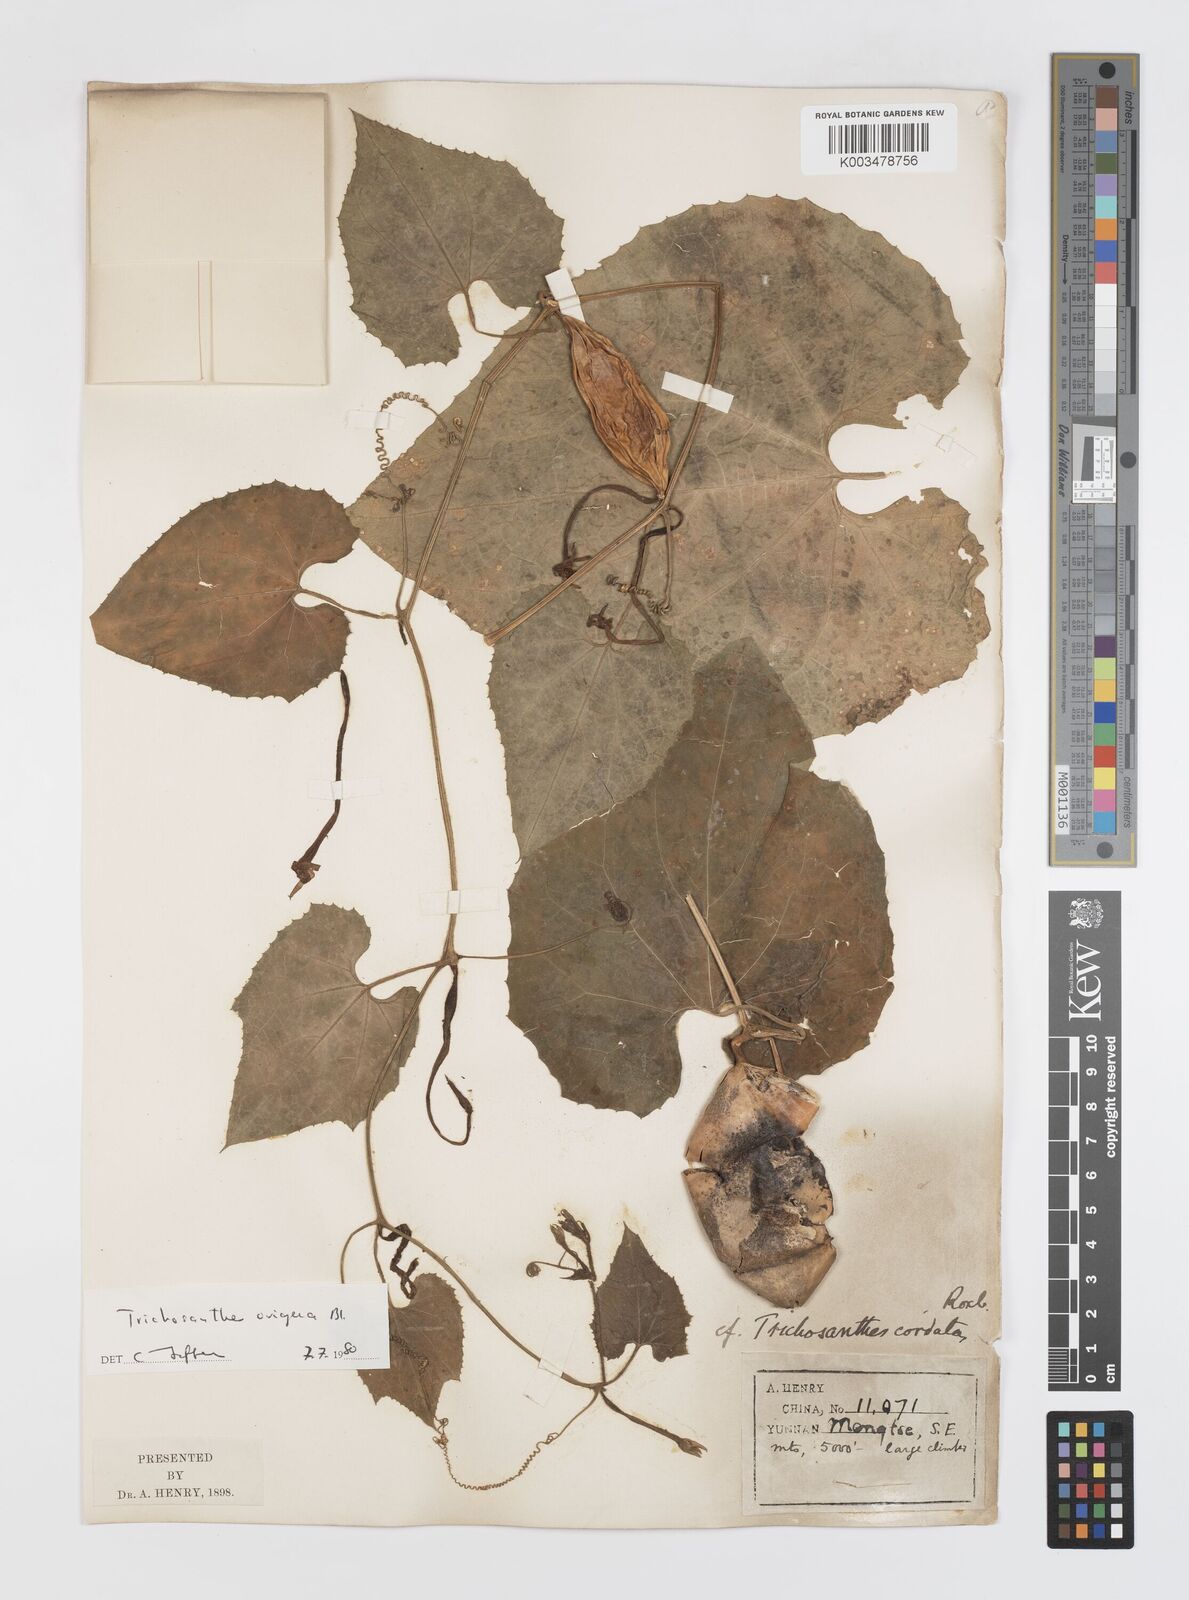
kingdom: Plantae
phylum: Tracheophyta
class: Magnoliopsida
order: Cucurbitales
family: Cucurbitaceae
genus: Trichosanthes
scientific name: Trichosanthes ovigera
